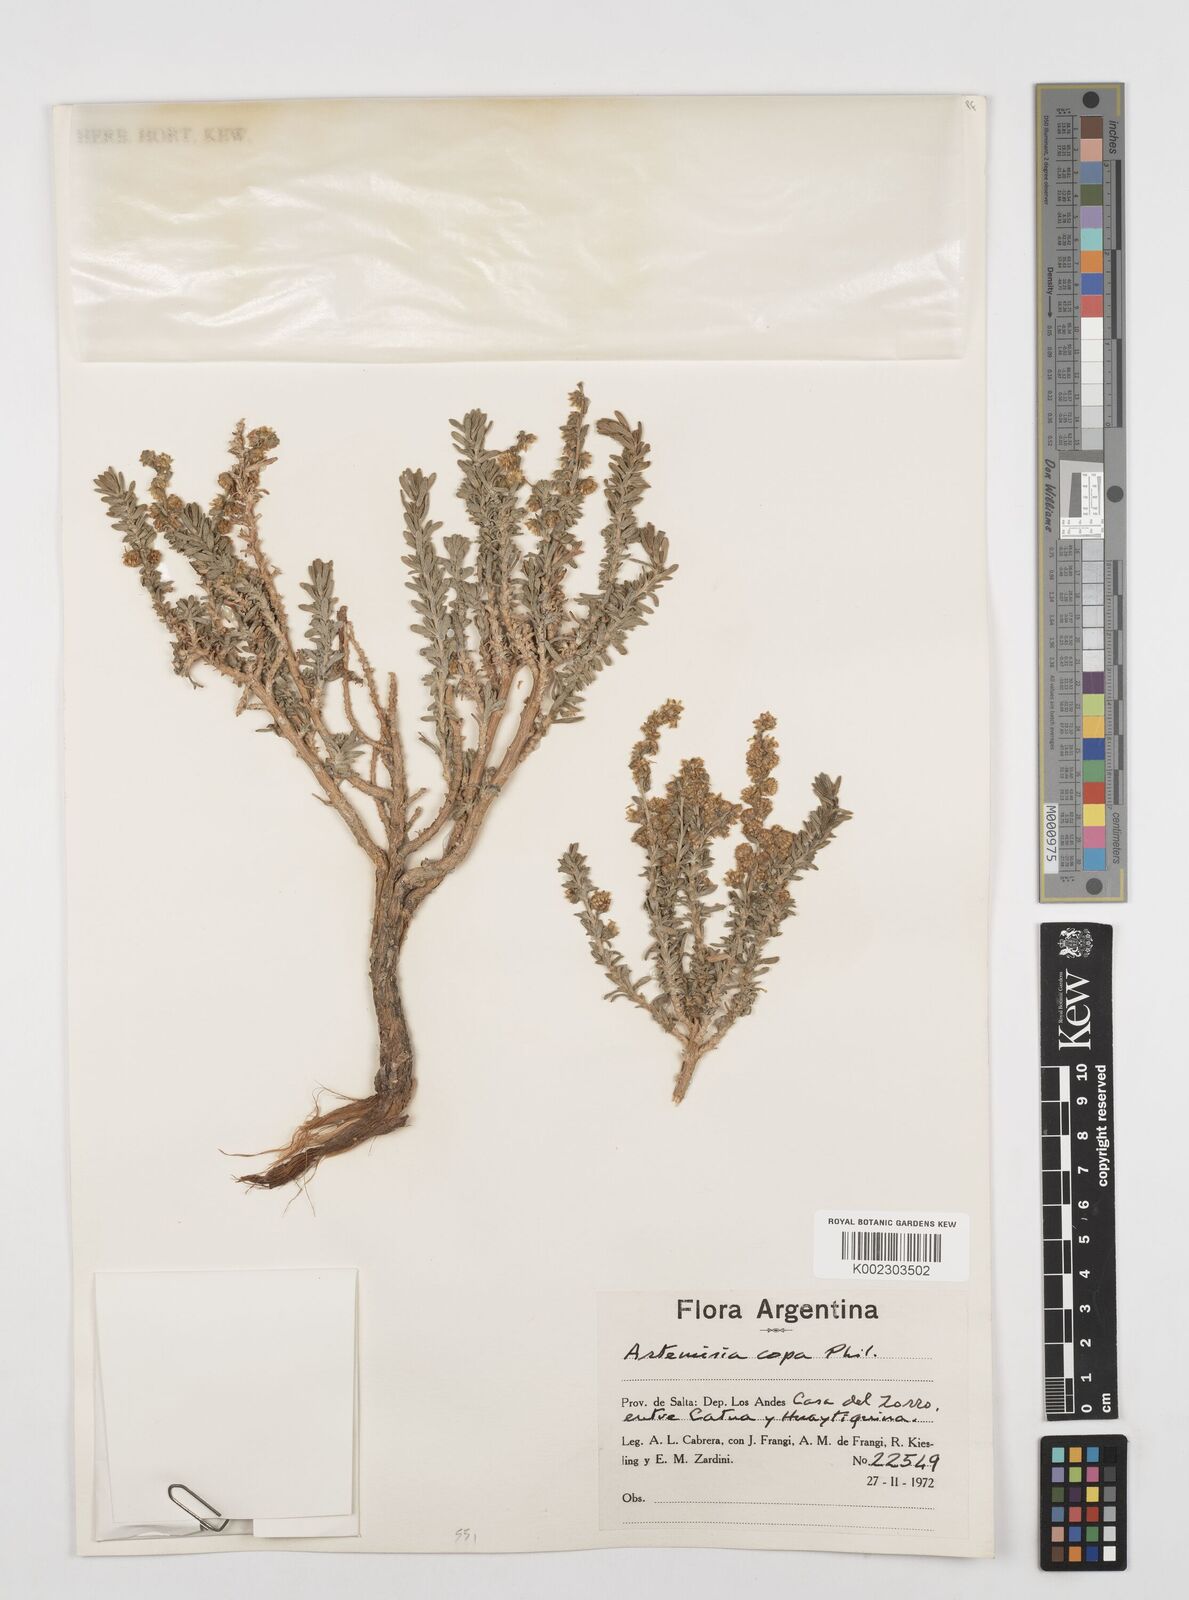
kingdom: Plantae
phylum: Tracheophyta
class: Magnoliopsida
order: Asterales
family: Asteraceae
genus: Artemisia
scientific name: Artemisia copa
